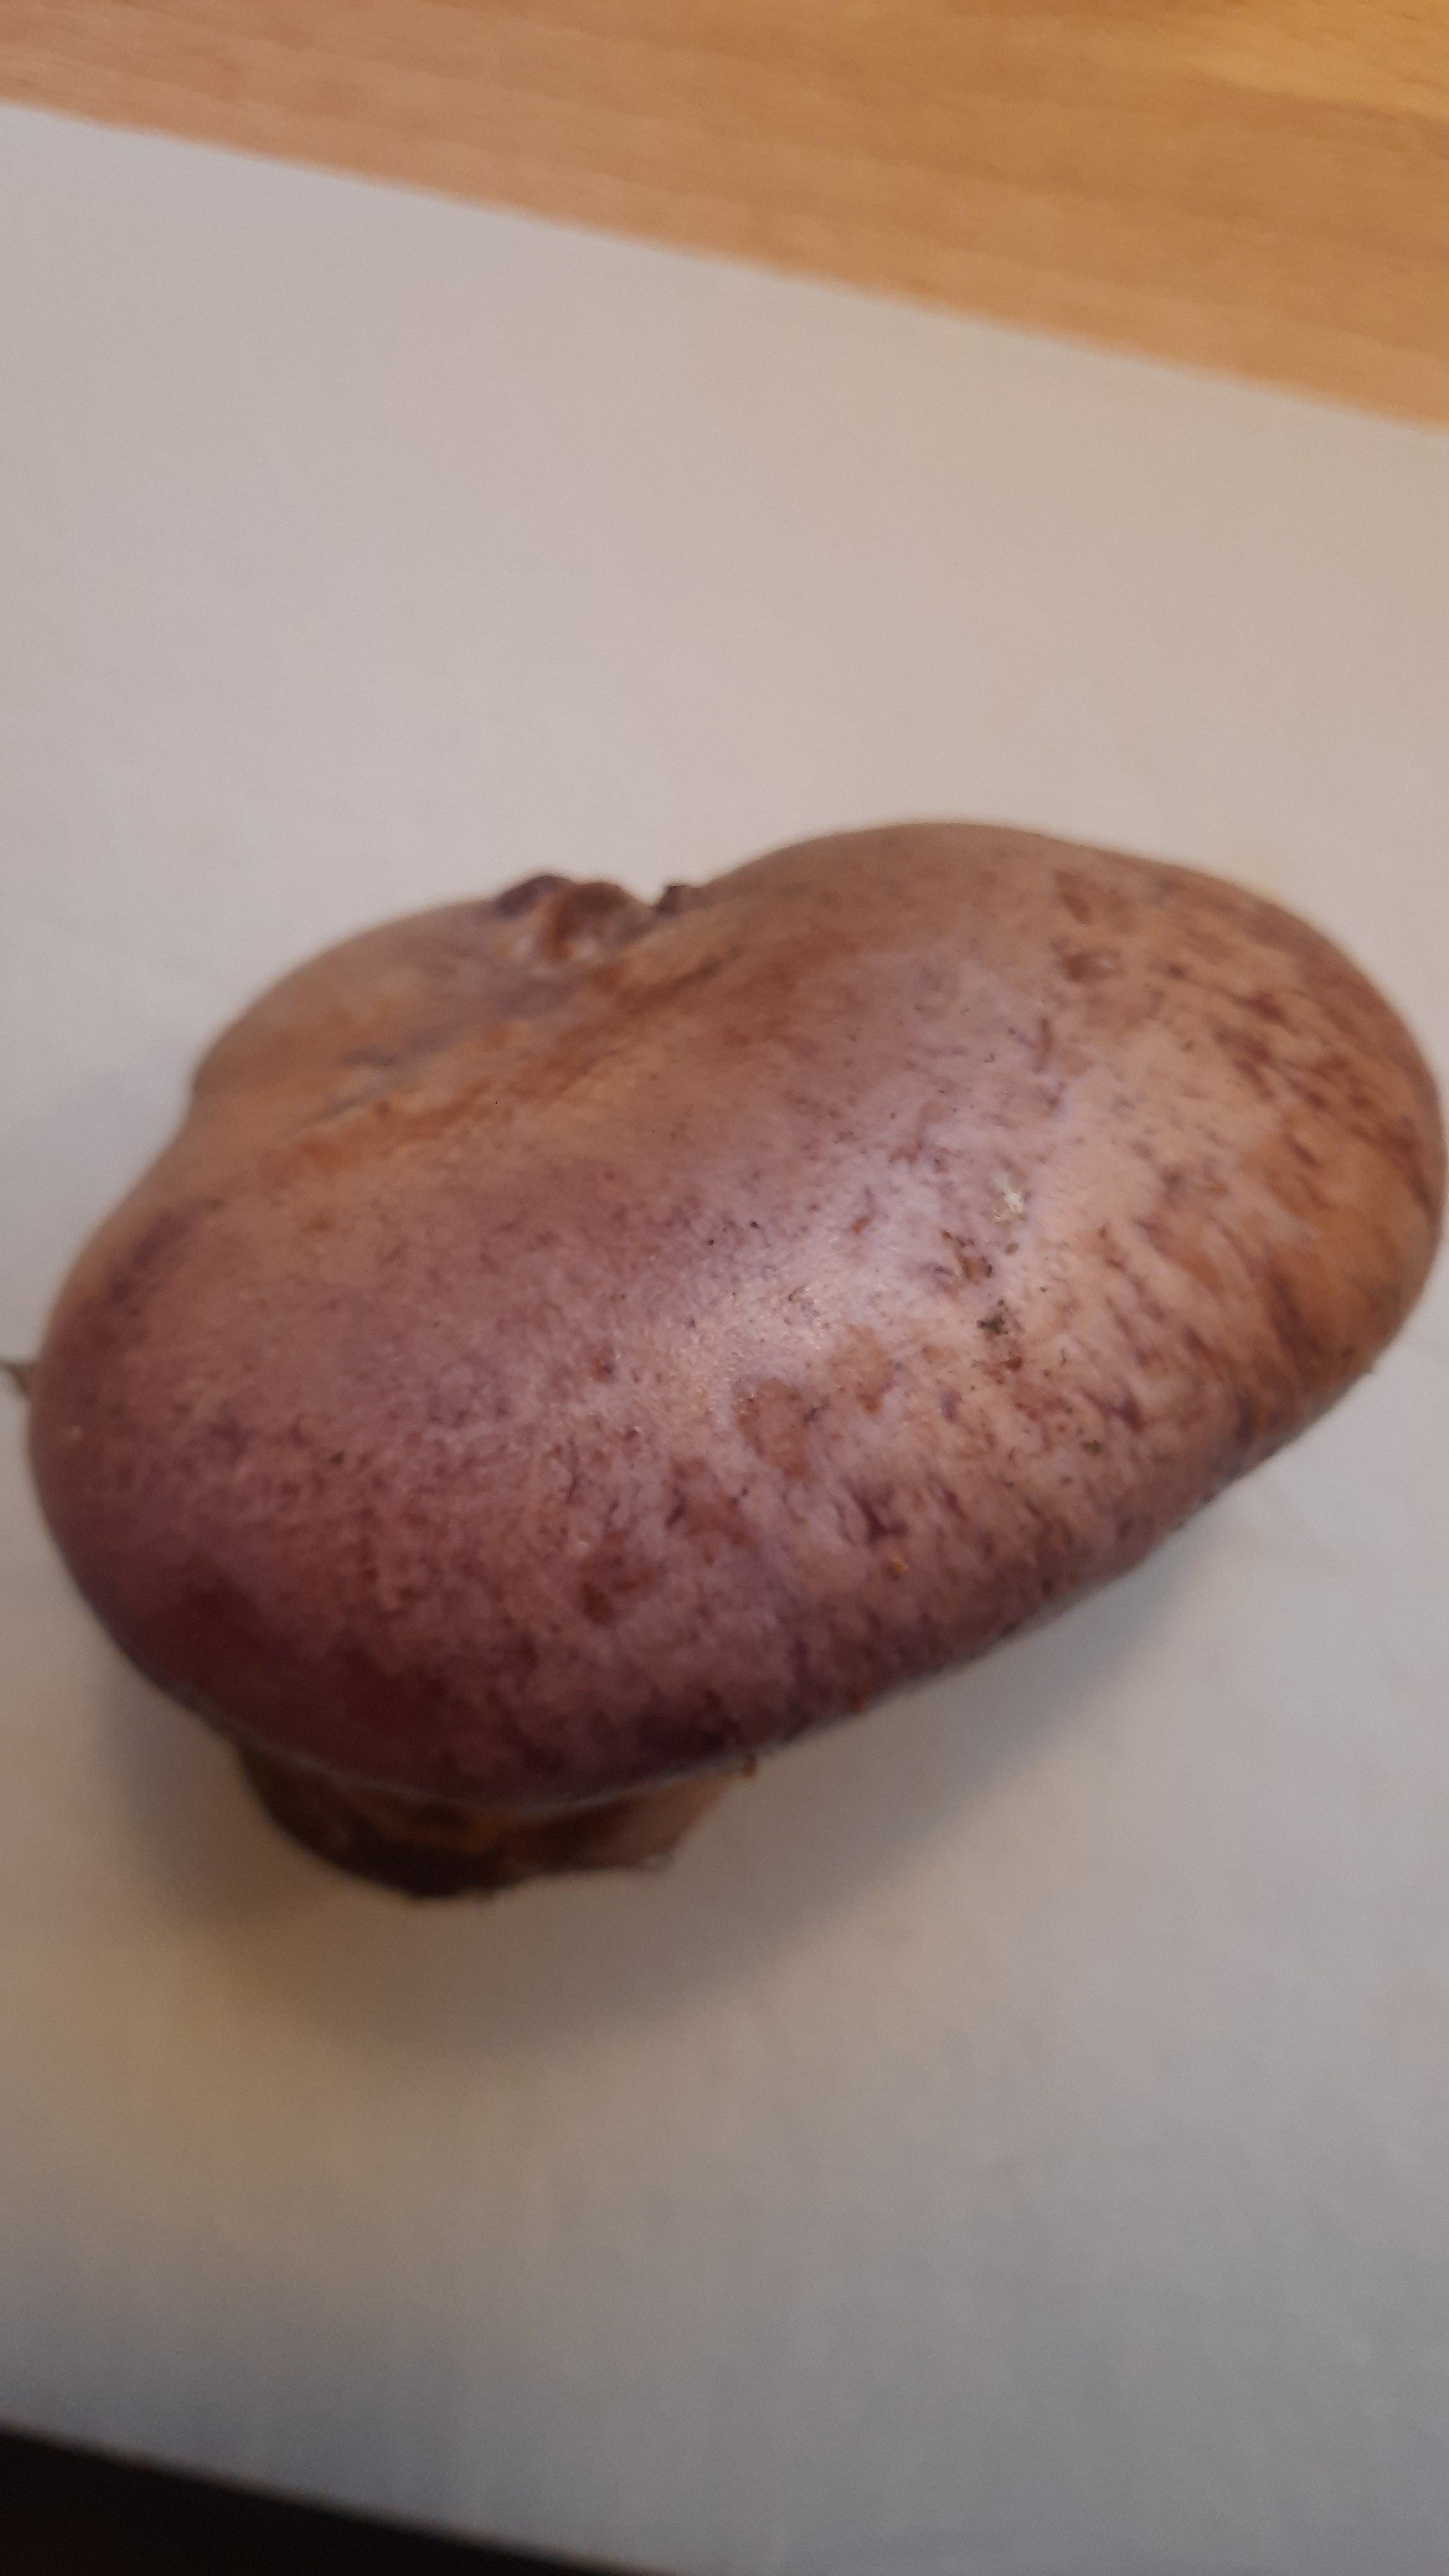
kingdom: Fungi
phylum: Basidiomycota
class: Agaricomycetes
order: Agaricales
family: Cortinariaceae
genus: Phlegmacium
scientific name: Phlegmacium balteatocumatile
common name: violettrådet slørhat
